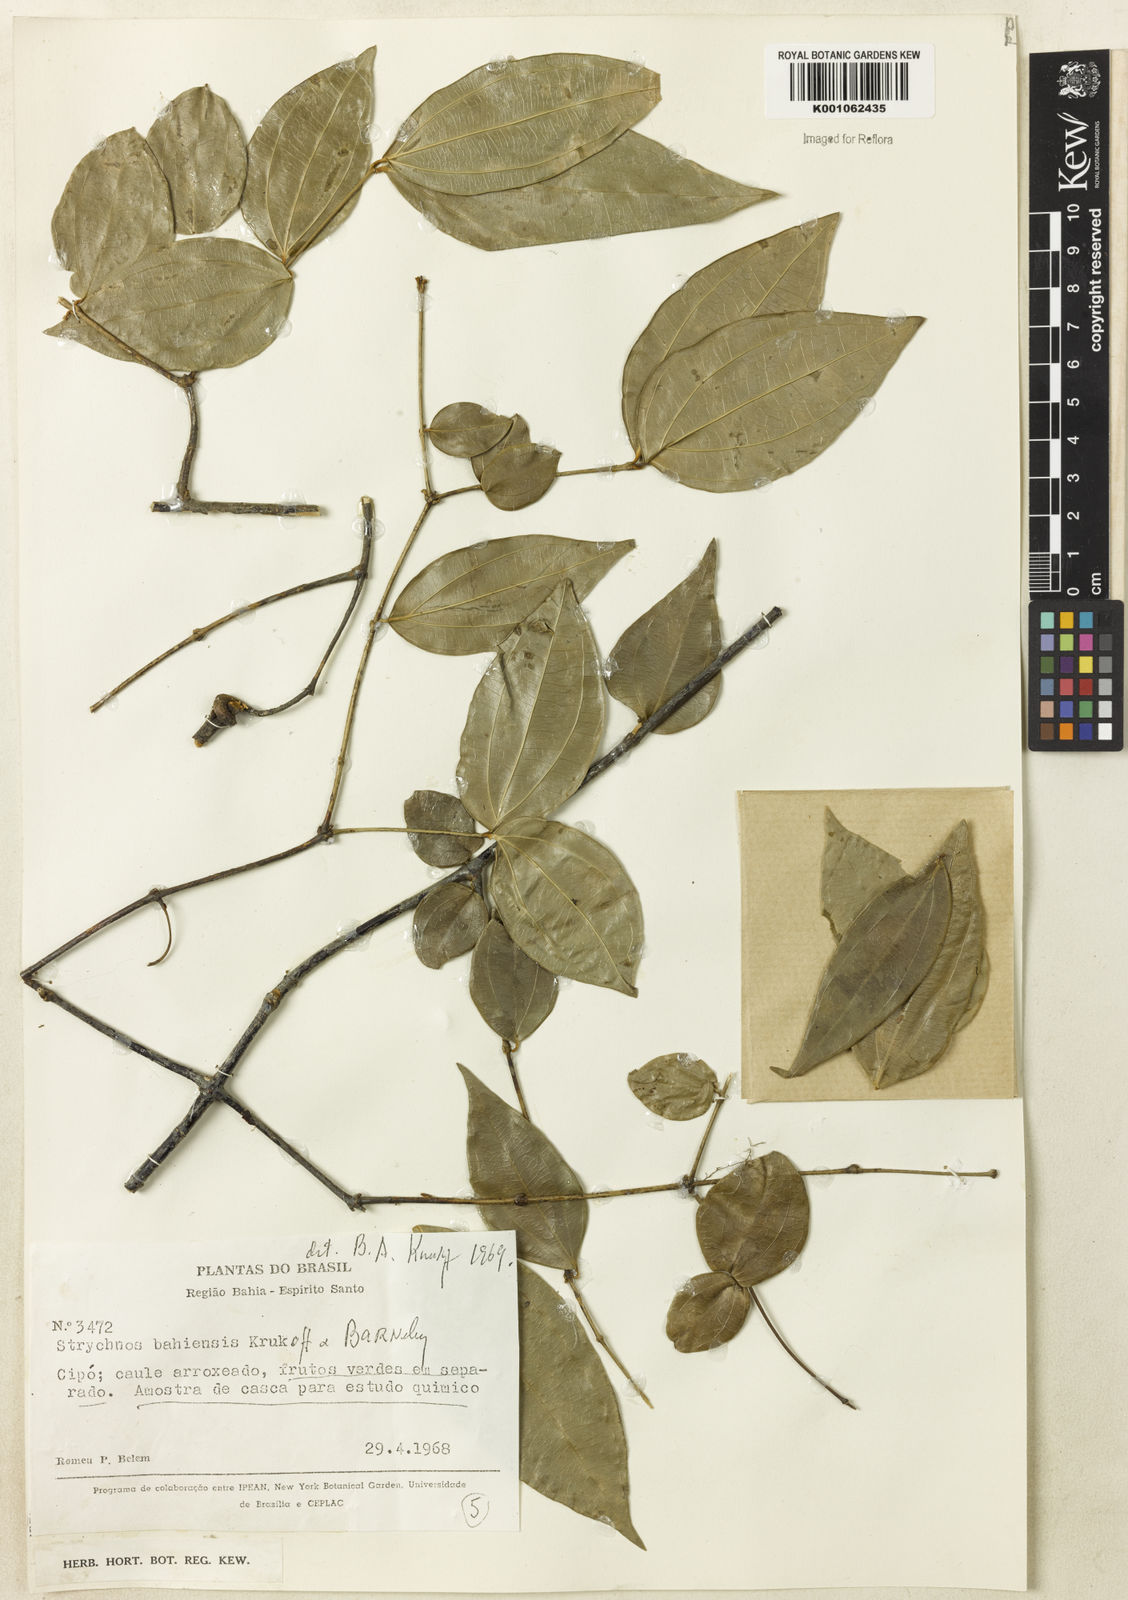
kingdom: Plantae
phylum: Tracheophyta
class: Magnoliopsida
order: Gentianales
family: Loganiaceae
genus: Strychnos
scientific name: Strychnos
